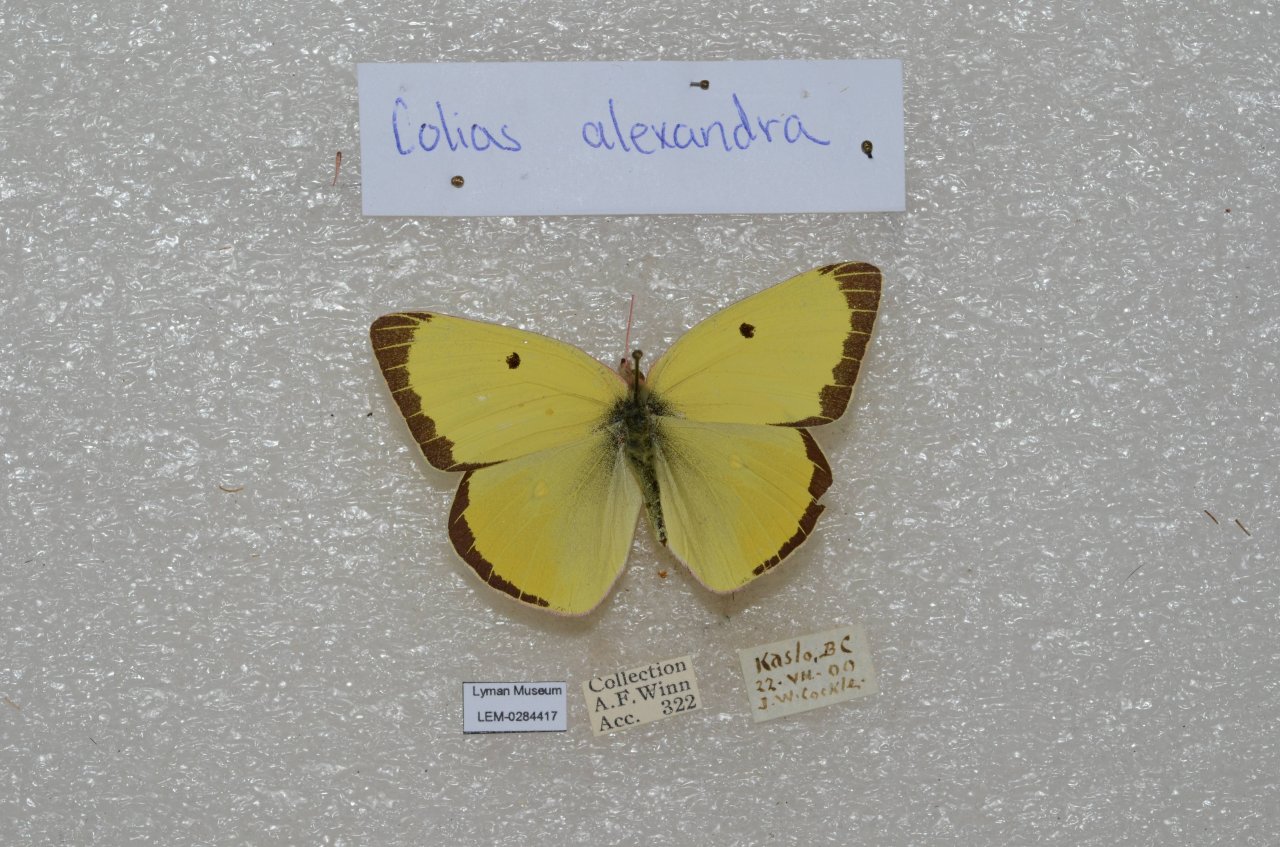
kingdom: Animalia
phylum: Arthropoda
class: Insecta
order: Lepidoptera
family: Pieridae
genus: Colias
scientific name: Colias alexandra
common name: Queen Alexandra's Sulphur
